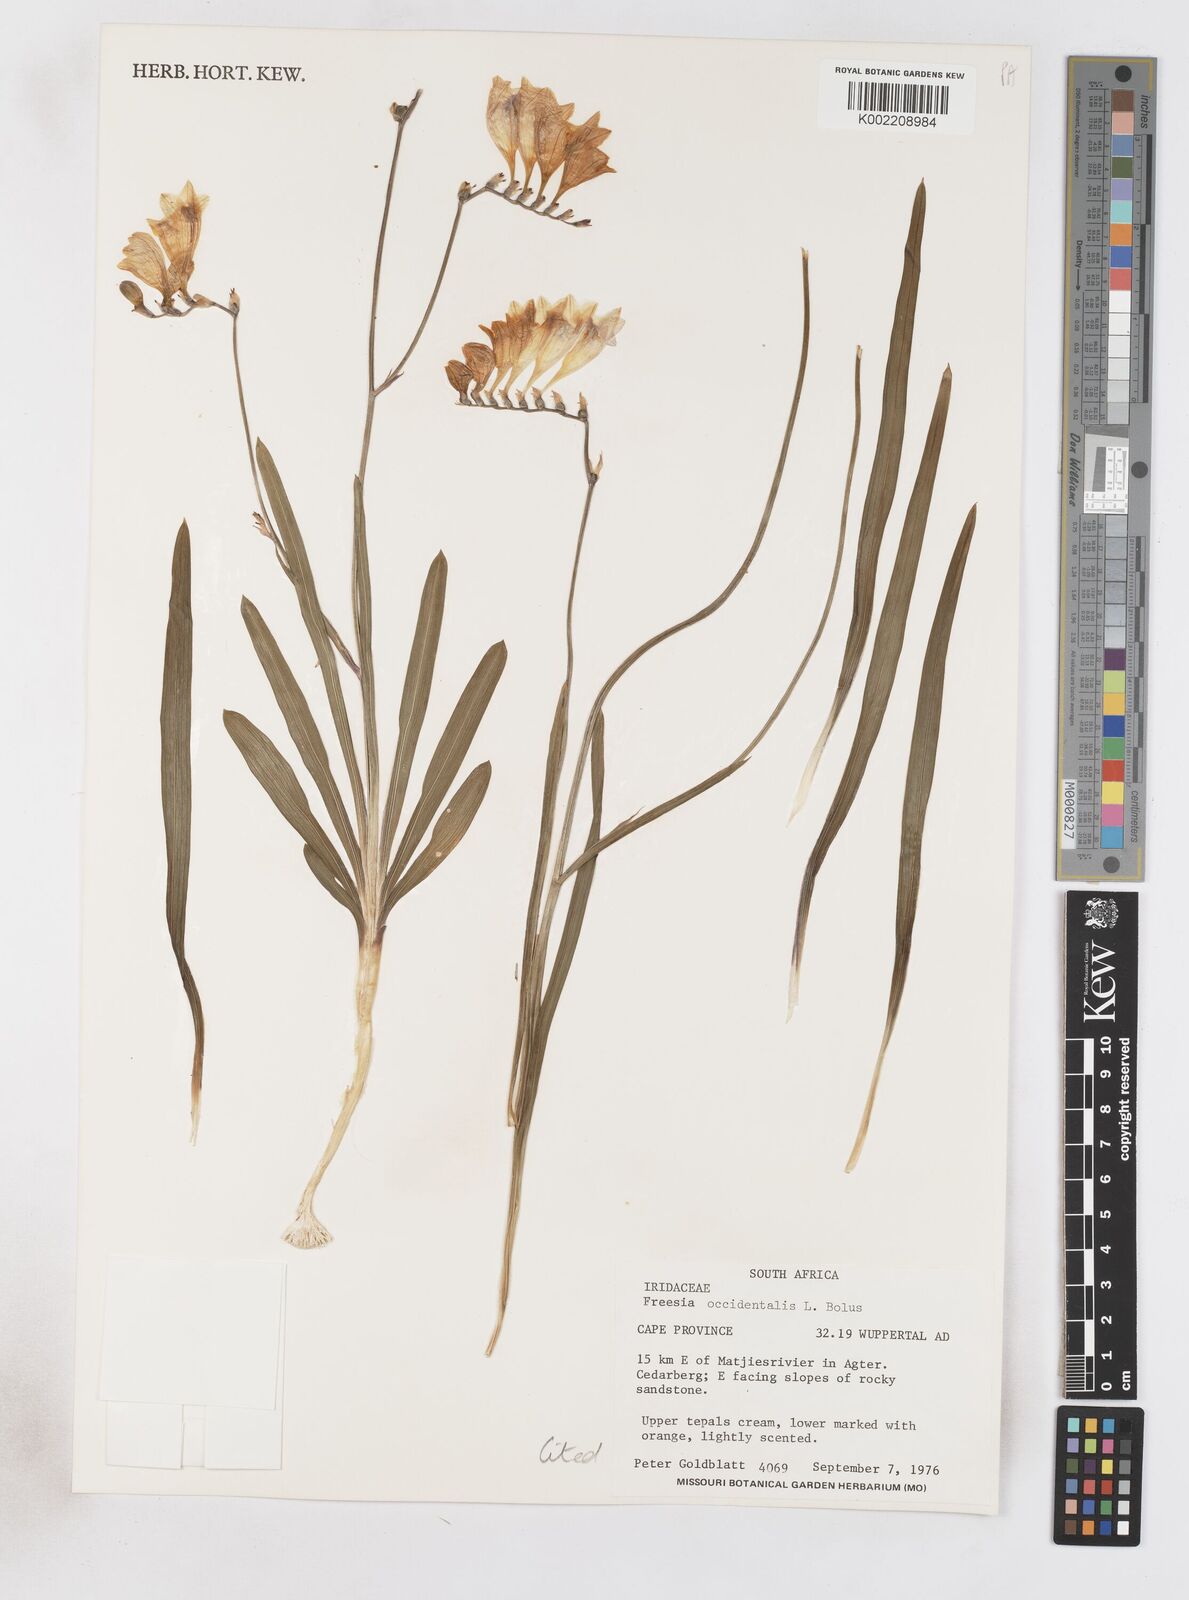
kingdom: Plantae
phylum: Tracheophyta
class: Liliopsida
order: Asparagales
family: Iridaceae
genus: Freesia
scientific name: Freesia occidentalis
